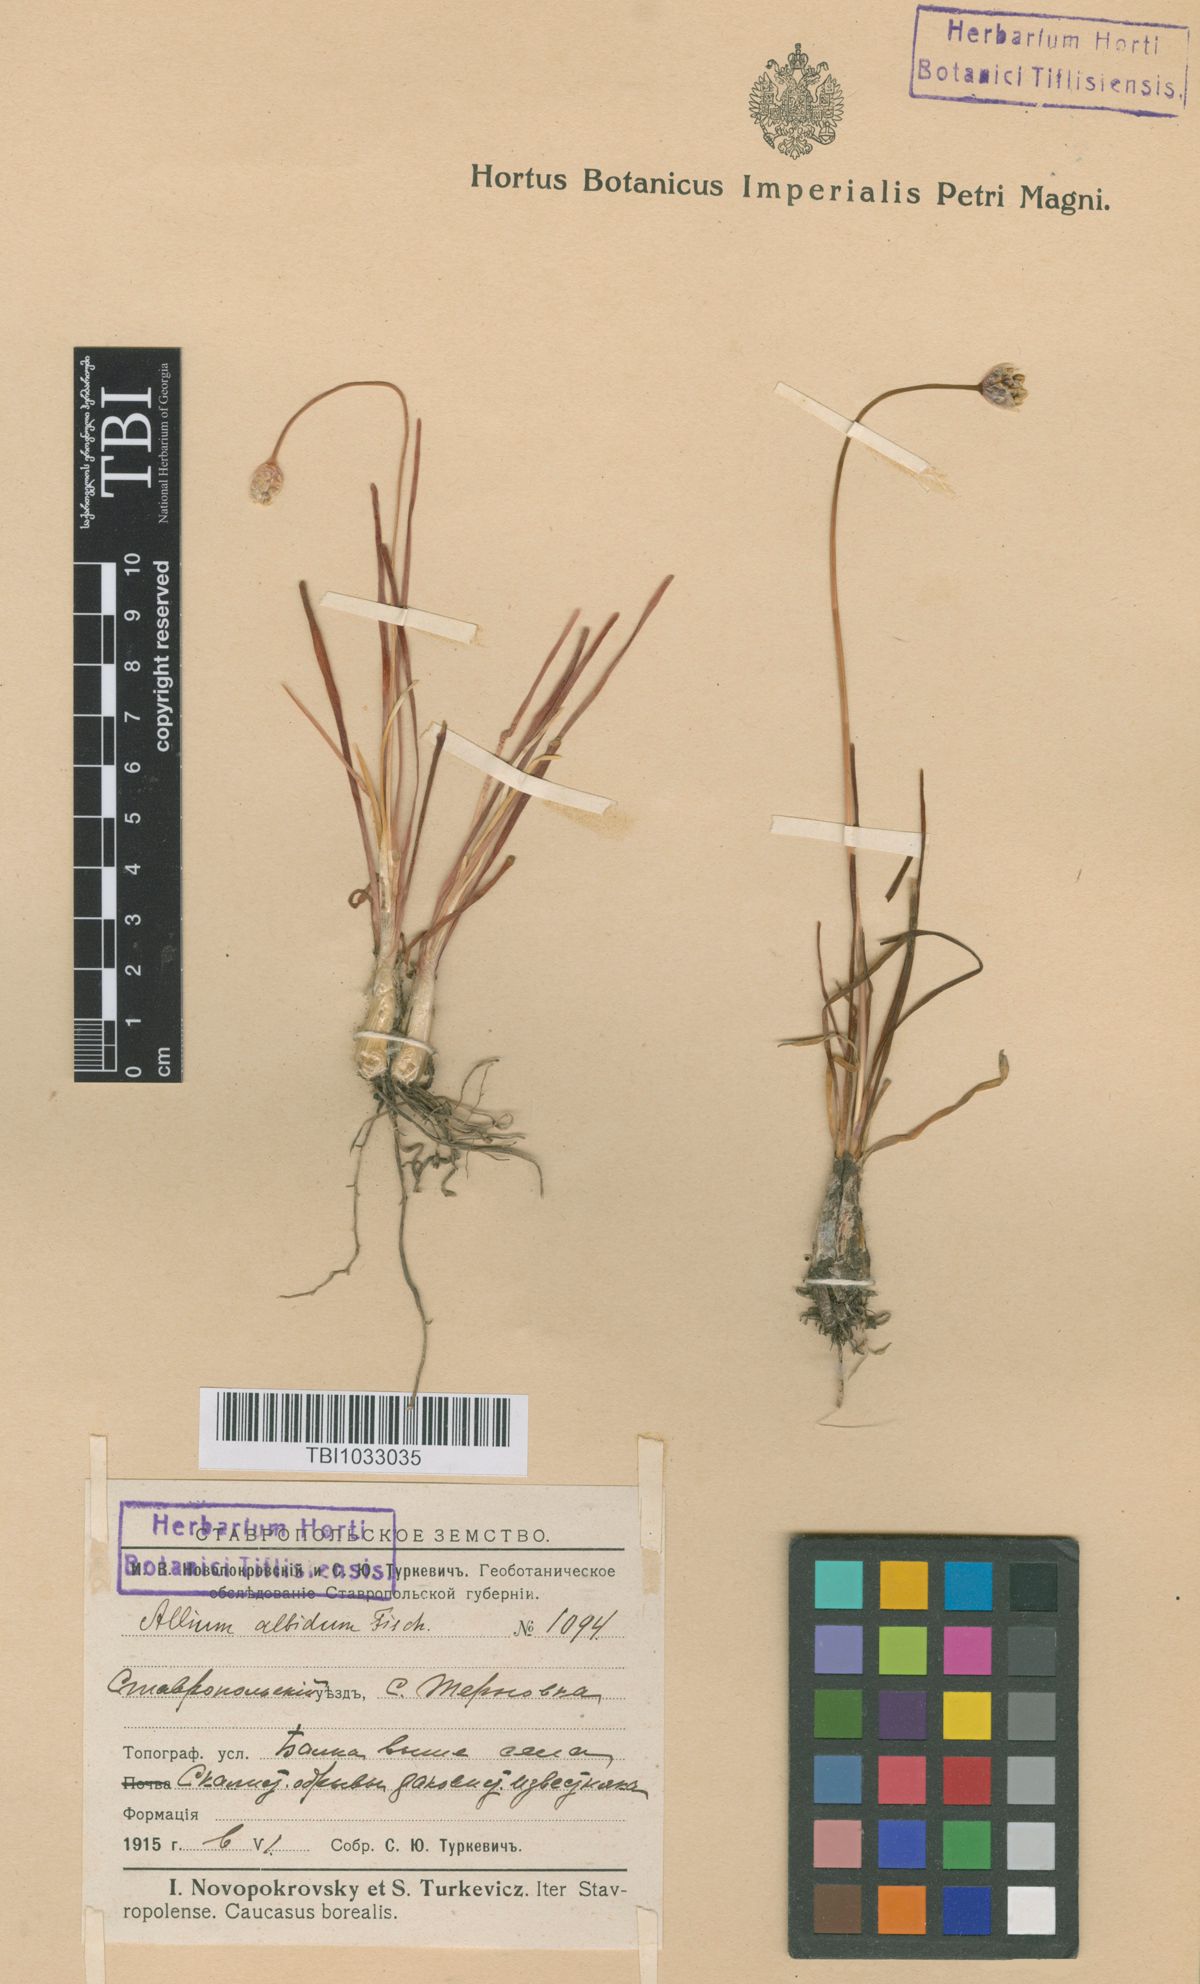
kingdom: Plantae
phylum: Tracheophyta
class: Liliopsida
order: Asparagales
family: Amaryllidaceae
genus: Allium
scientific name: Allium denudatum
